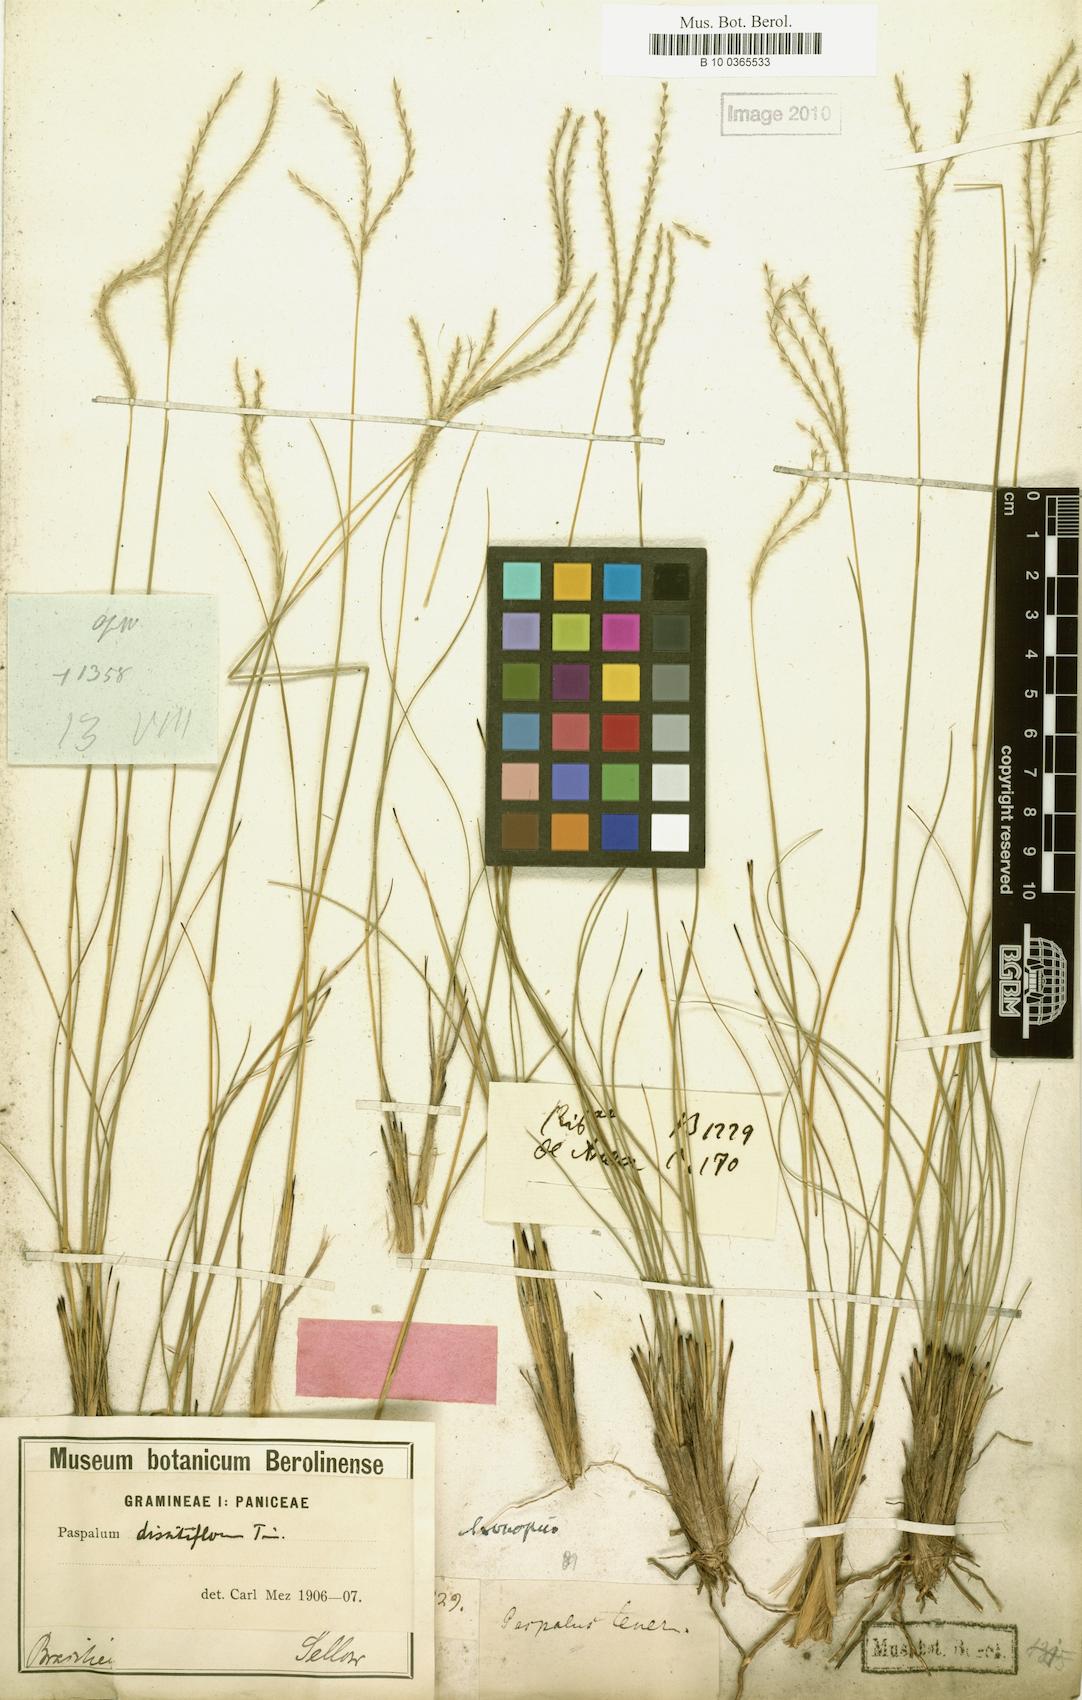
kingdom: Plantae
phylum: Tracheophyta
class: Liliopsida
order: Poales
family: Poaceae
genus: Axonopus
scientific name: Axonopus brasiliensis
